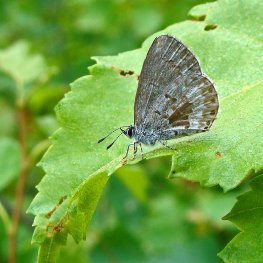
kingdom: Animalia
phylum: Arthropoda
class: Insecta
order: Lepidoptera
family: Lycaenidae
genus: Celastrina
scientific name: Celastrina lucia
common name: Northern Spring Azure
